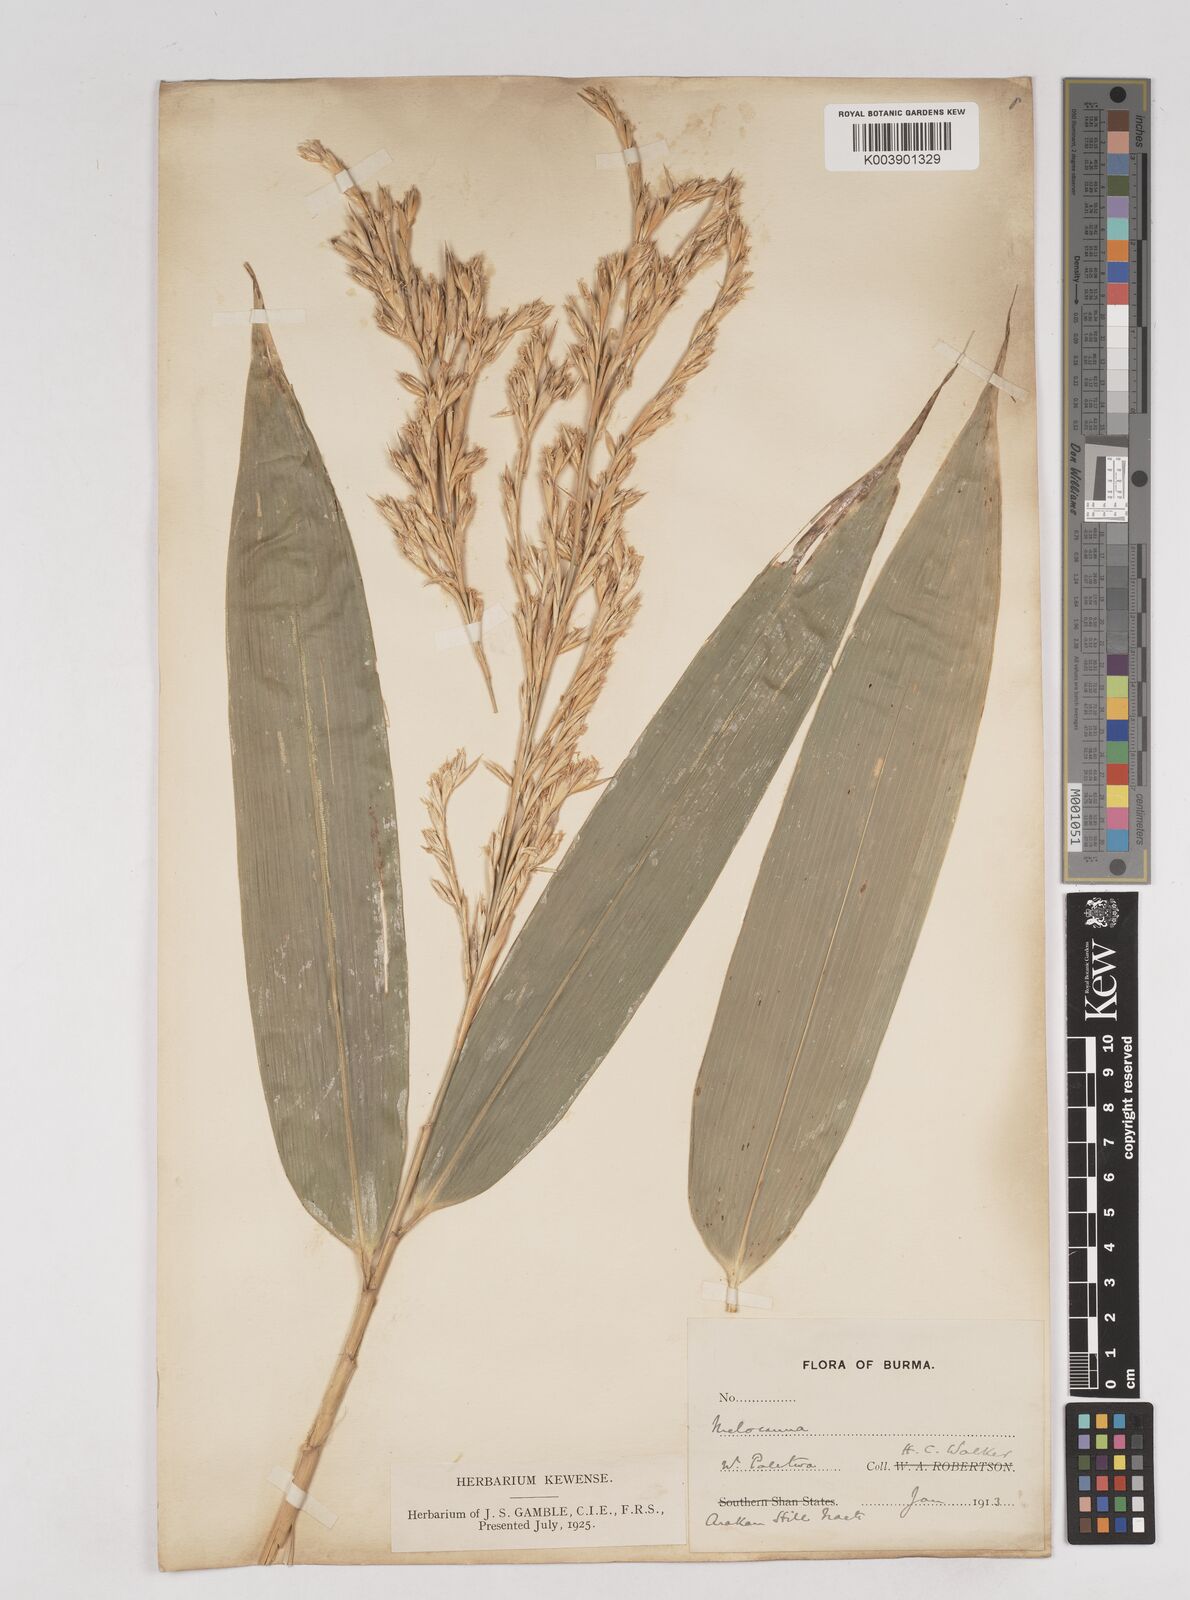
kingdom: Plantae
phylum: Tracheophyta
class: Liliopsida
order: Poales
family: Poaceae
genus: Melocanna
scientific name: Melocanna
